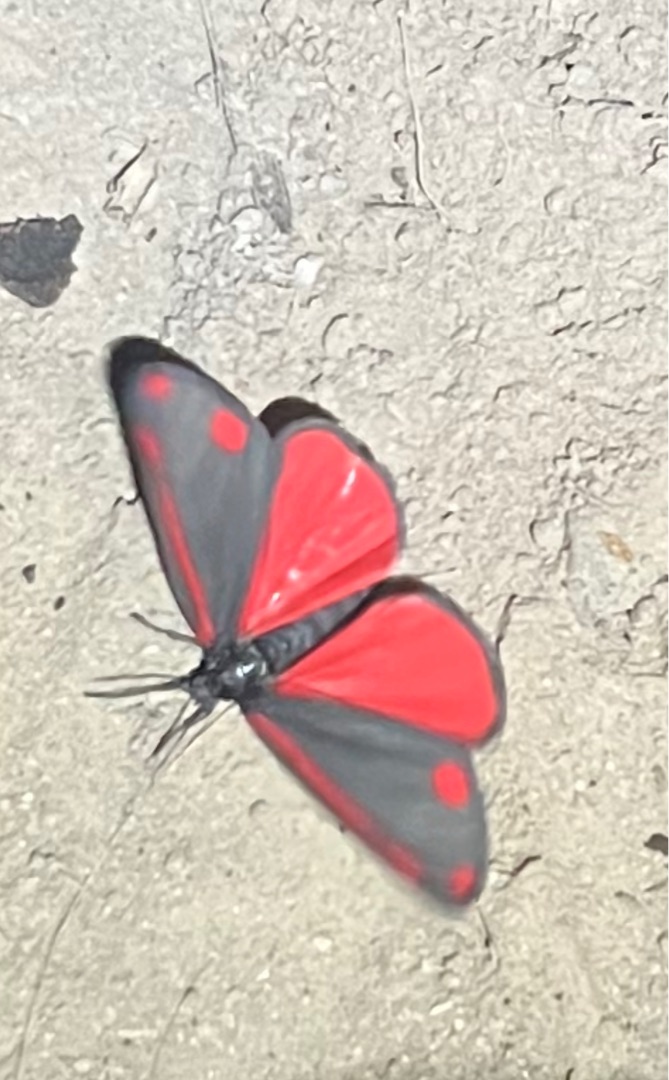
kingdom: Animalia
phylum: Arthropoda
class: Insecta
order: Lepidoptera
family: Erebidae
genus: Tyria
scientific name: Tyria jacobaeae
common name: Blodplet
